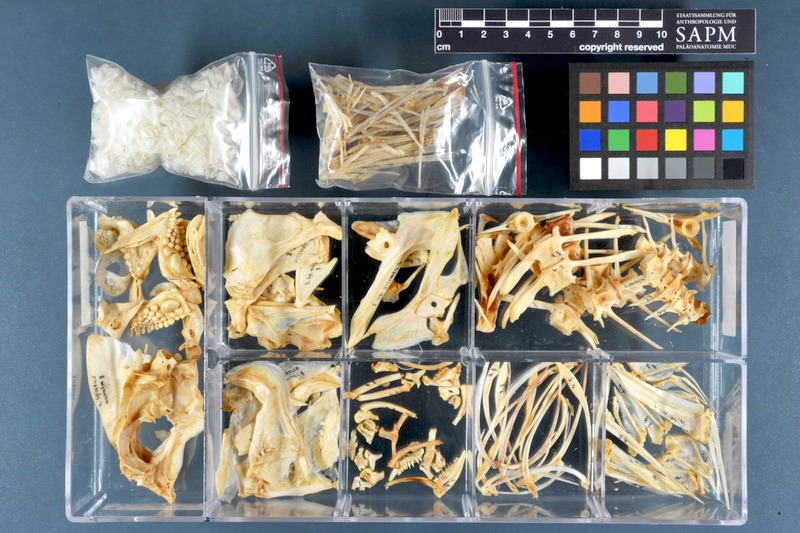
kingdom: Animalia
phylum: Chordata
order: Perciformes
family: Sparidae
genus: Sparus
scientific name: Sparus aurata
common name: Gilthead
